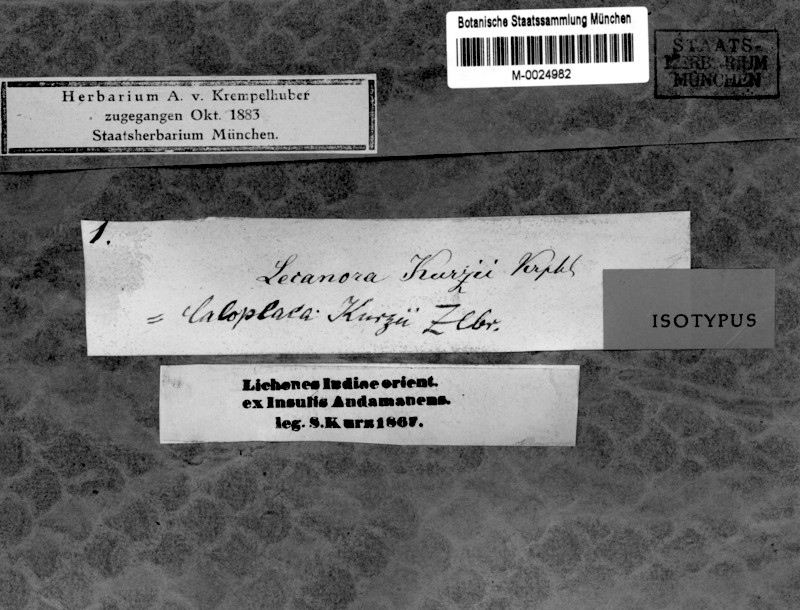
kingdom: Fungi
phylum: Ascomycota
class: Lecanoromycetes
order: Teloschistales
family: Teloschistaceae
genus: Caloplaca
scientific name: Caloplaca kurzii
